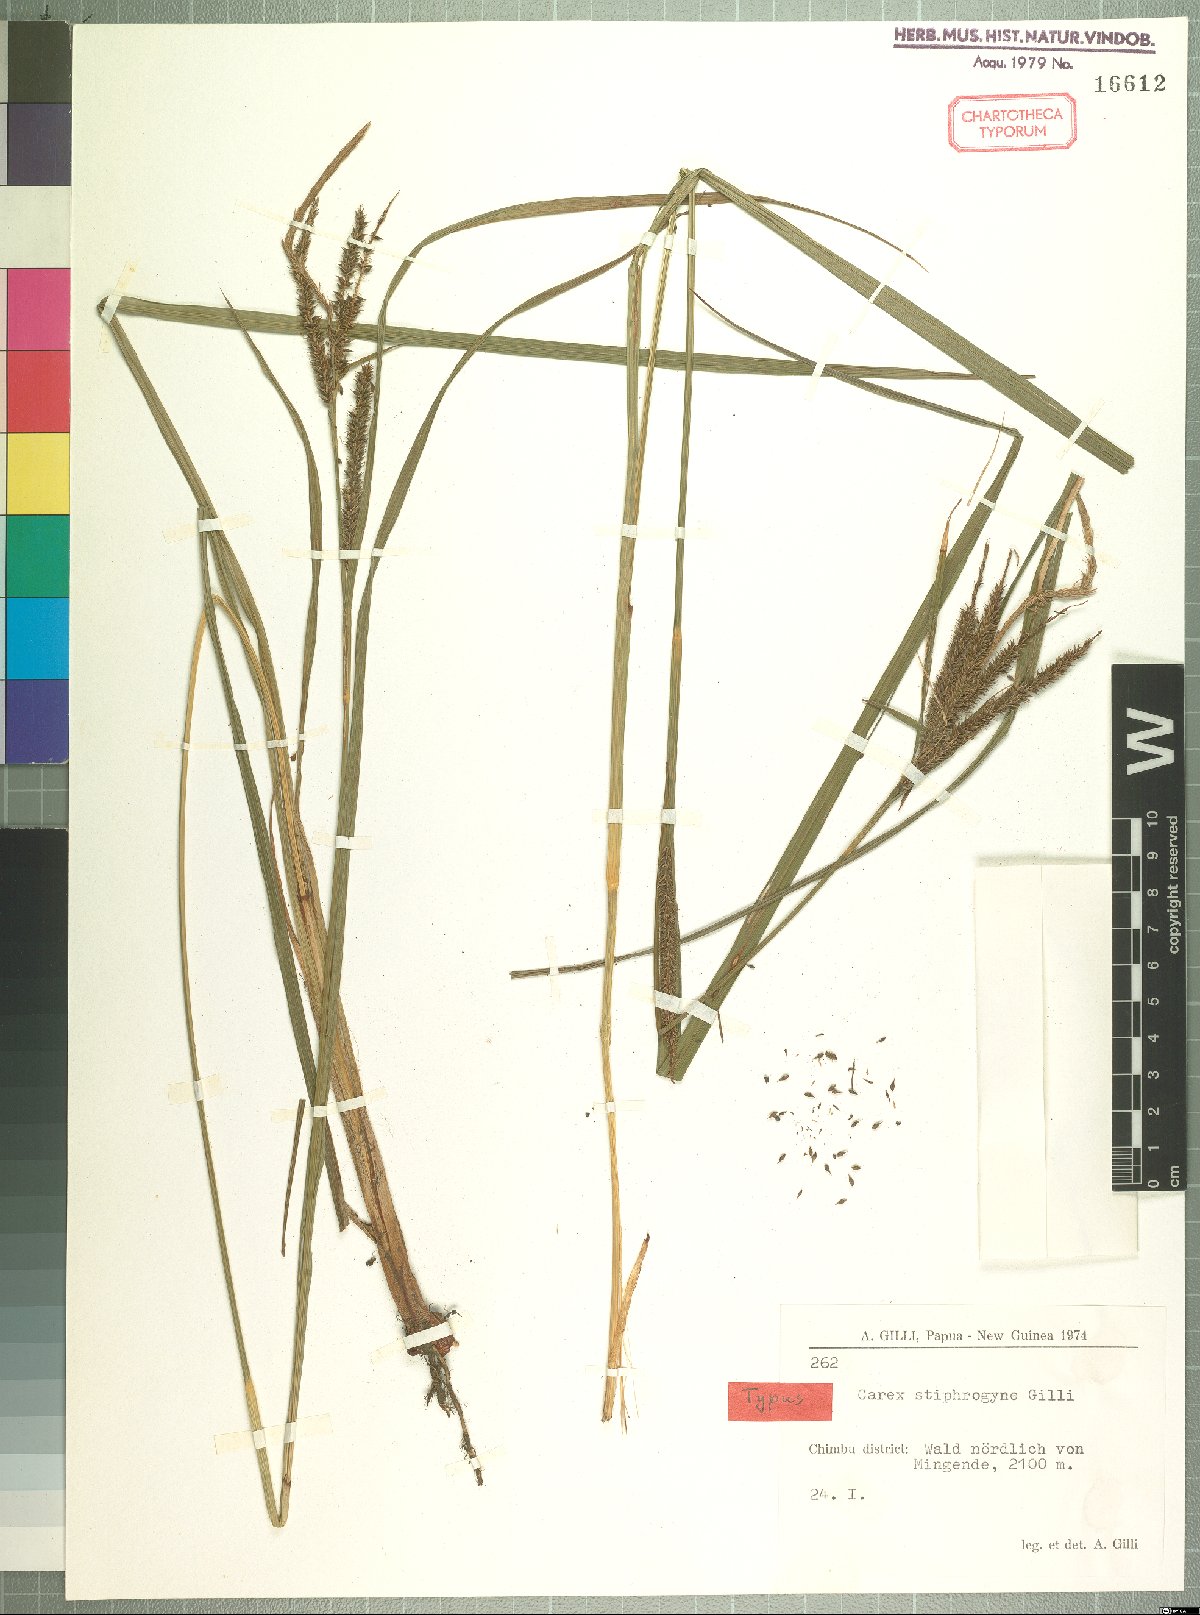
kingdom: Plantae
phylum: Tracheophyta
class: Liliopsida
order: Poales
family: Cyperaceae
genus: Carex
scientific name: Carex stiphrogyne
